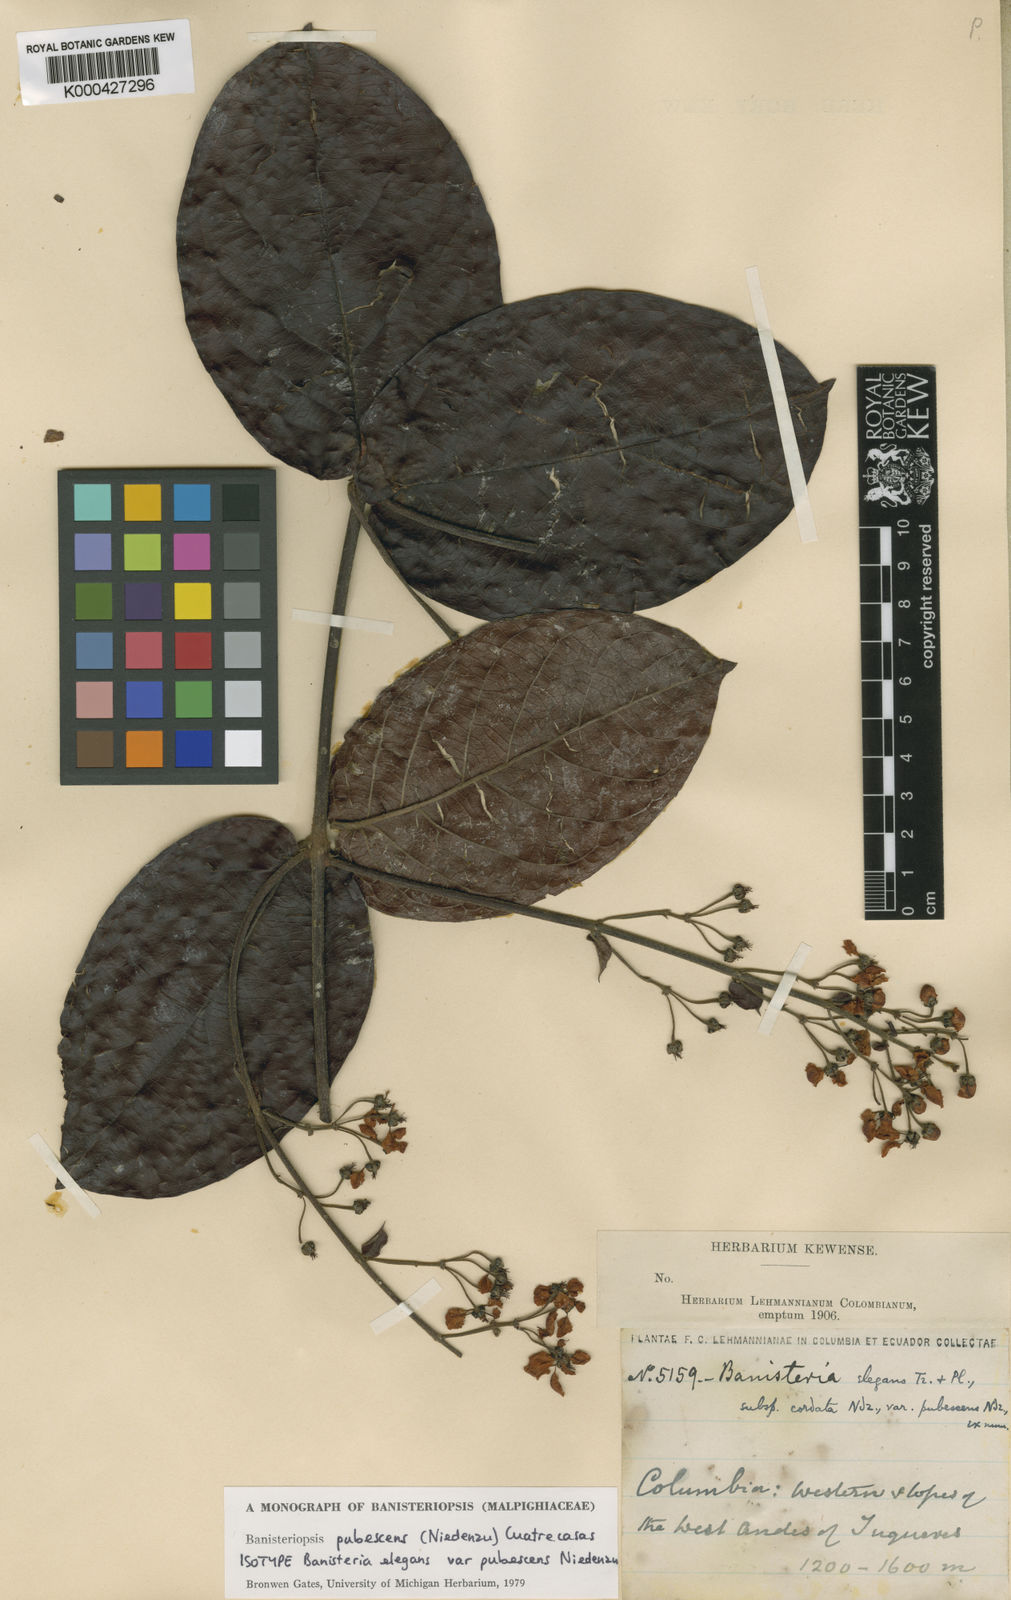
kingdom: Plantae
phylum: Tracheophyta
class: Magnoliopsida
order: Malpighiales
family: Malpighiaceae
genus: Banisteriopsis
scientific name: Banisteriopsis elegans
